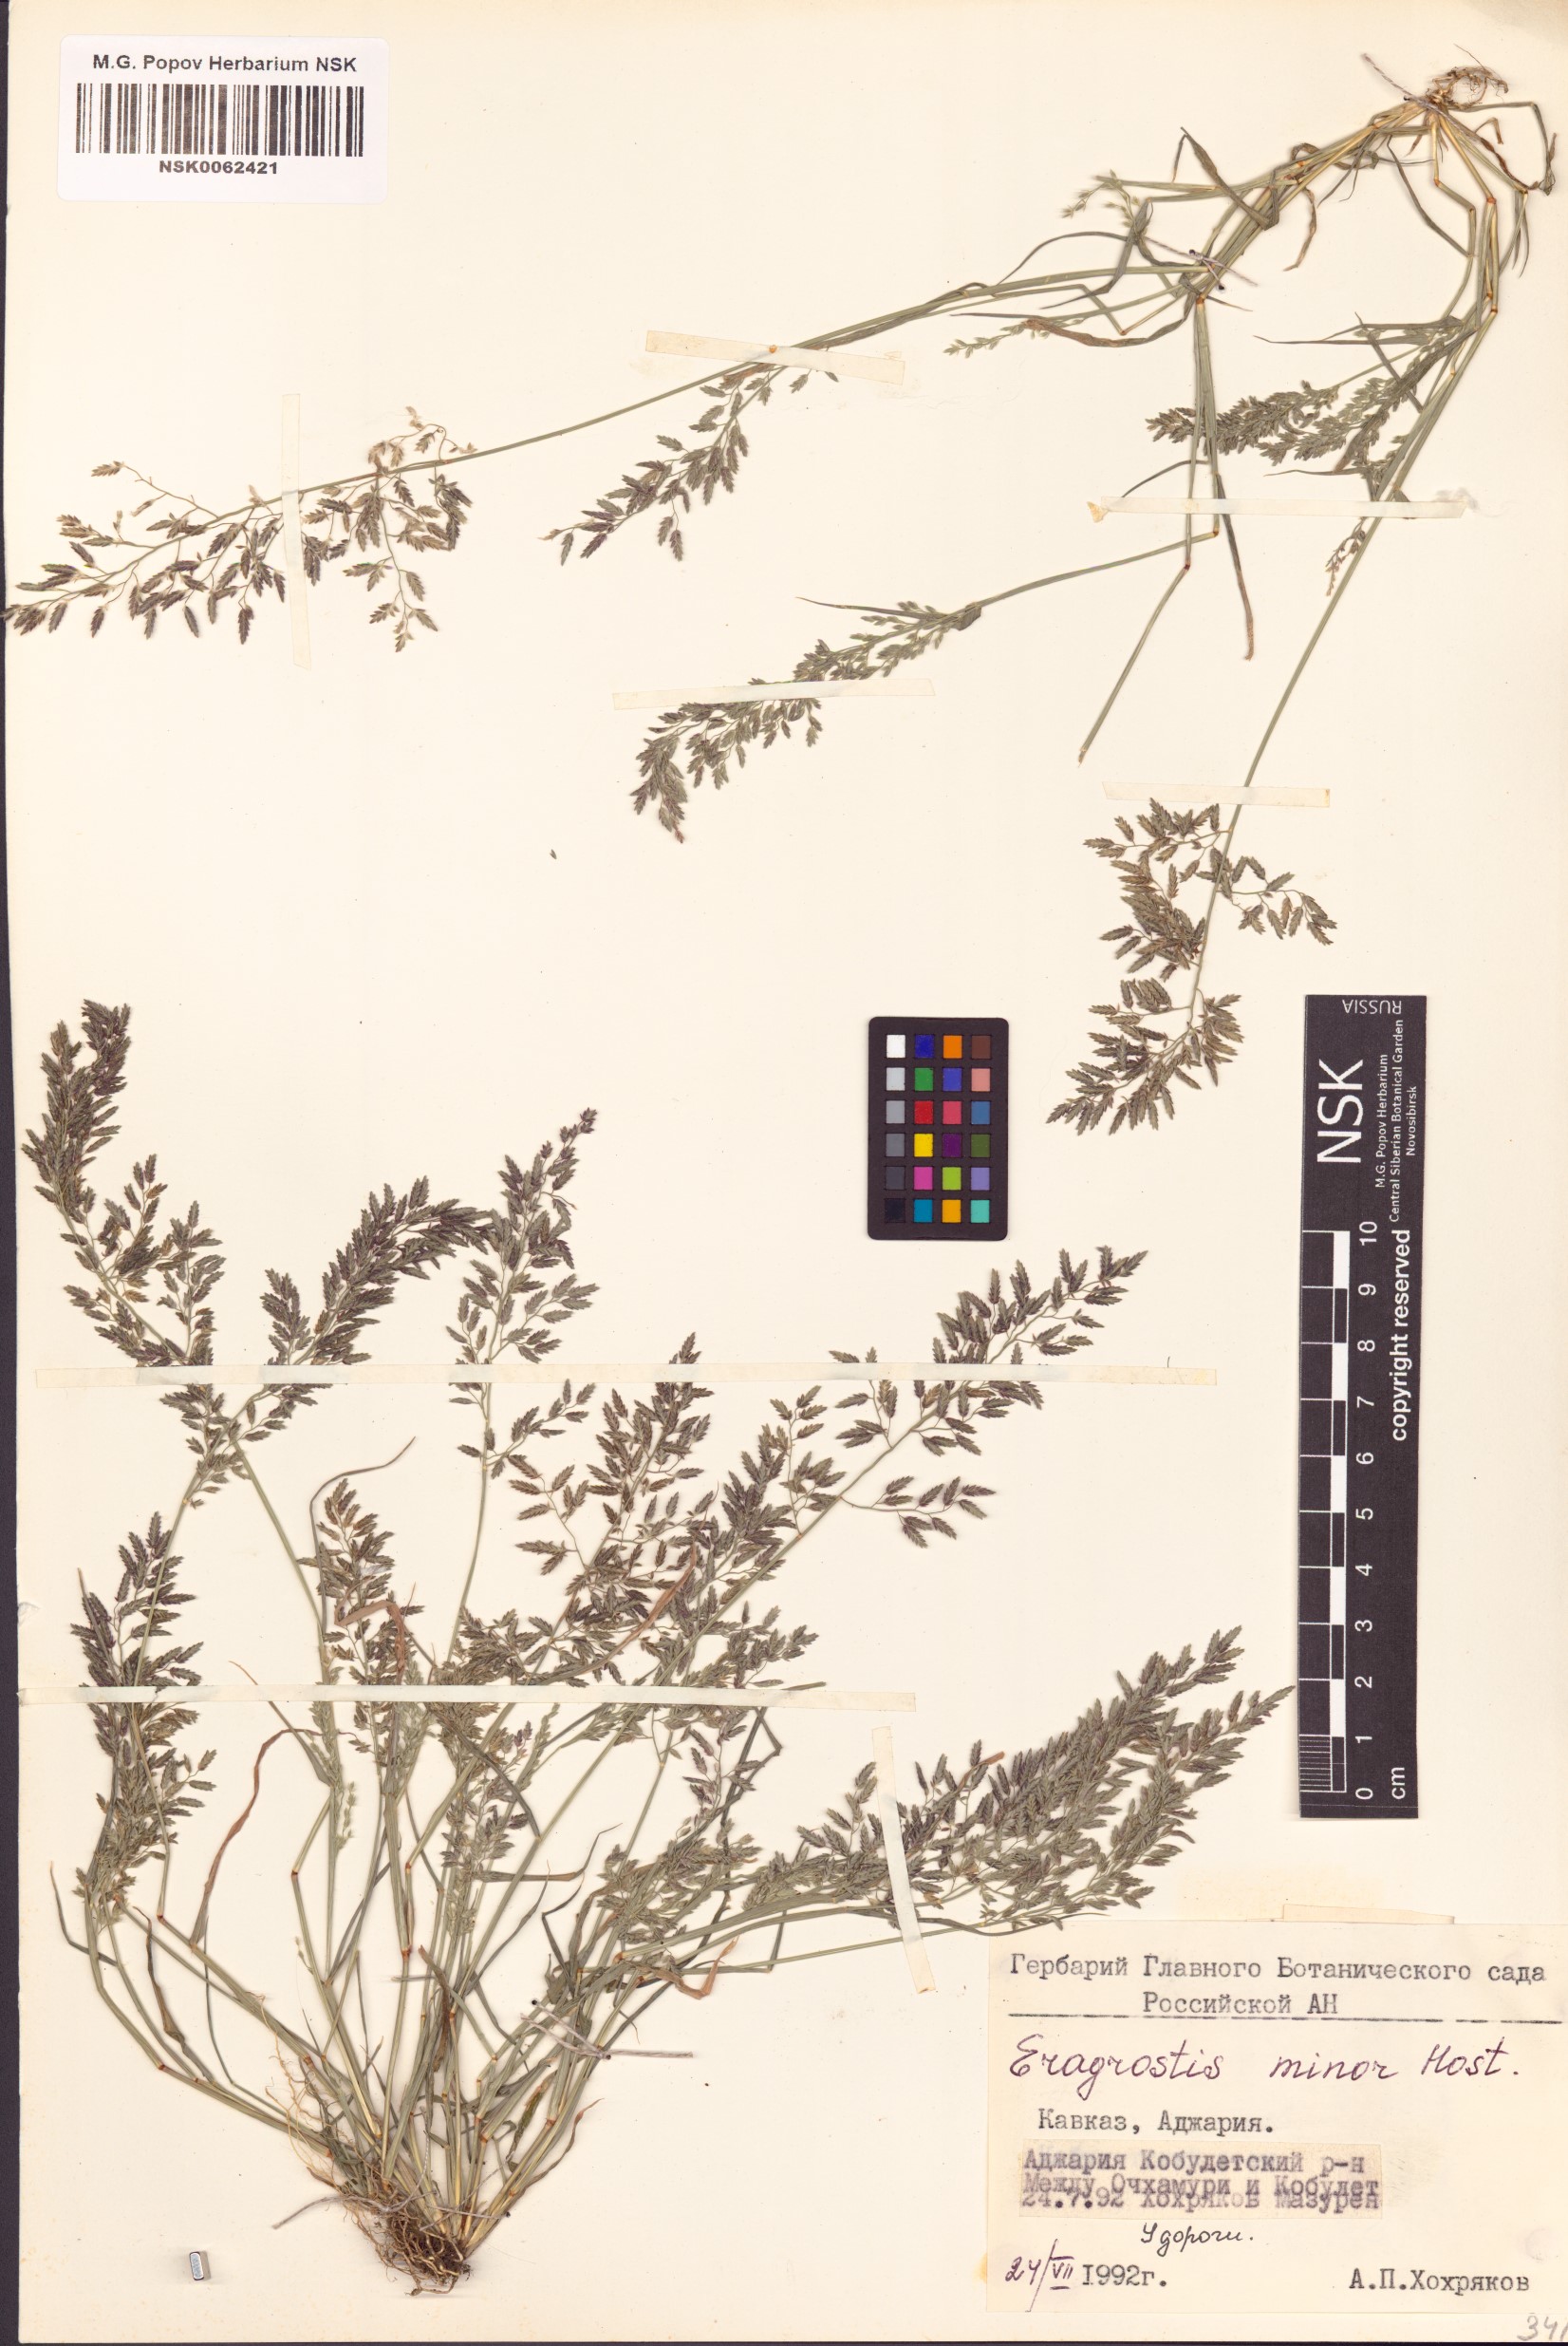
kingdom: Plantae
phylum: Tracheophyta
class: Liliopsida
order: Poales
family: Poaceae
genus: Eragrostis
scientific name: Eragrostis minor
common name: Small love-grass
